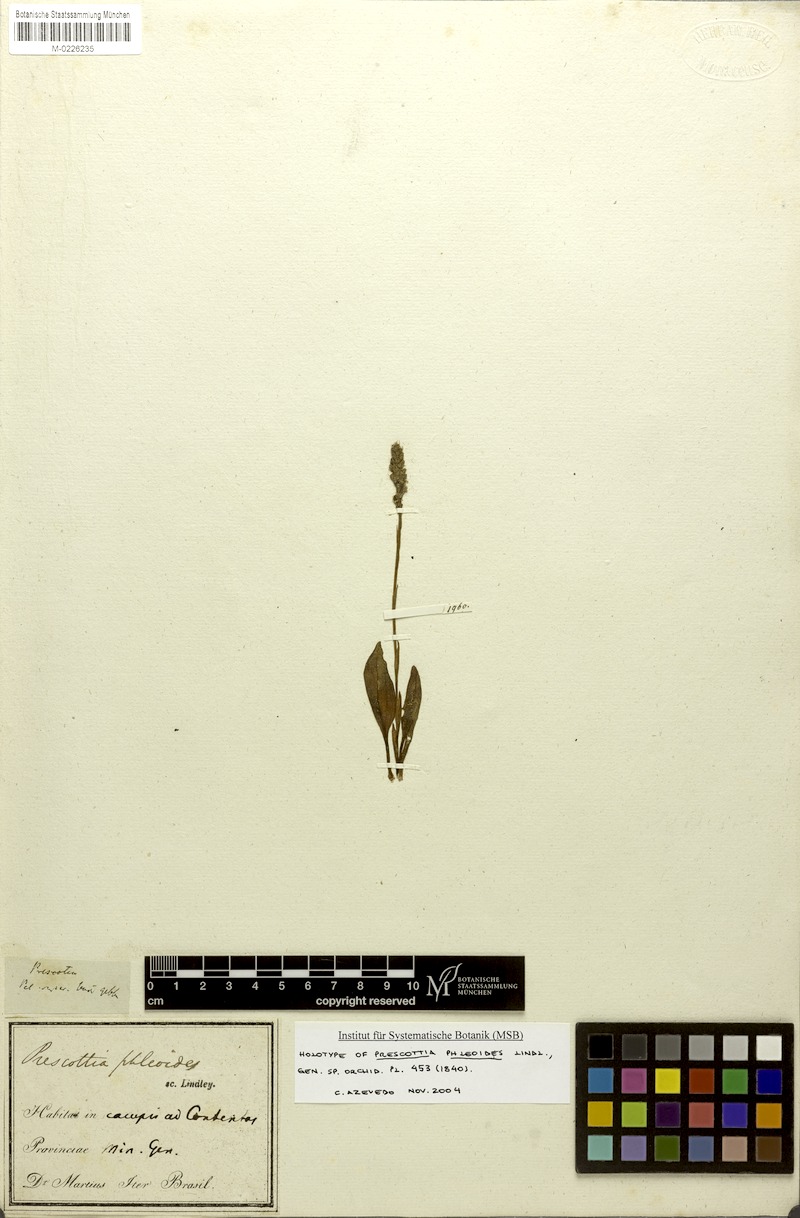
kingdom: Plantae
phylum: Tracheophyta
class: Liliopsida
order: Asparagales
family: Orchidaceae
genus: Prescottia
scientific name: Prescottia phleoides
